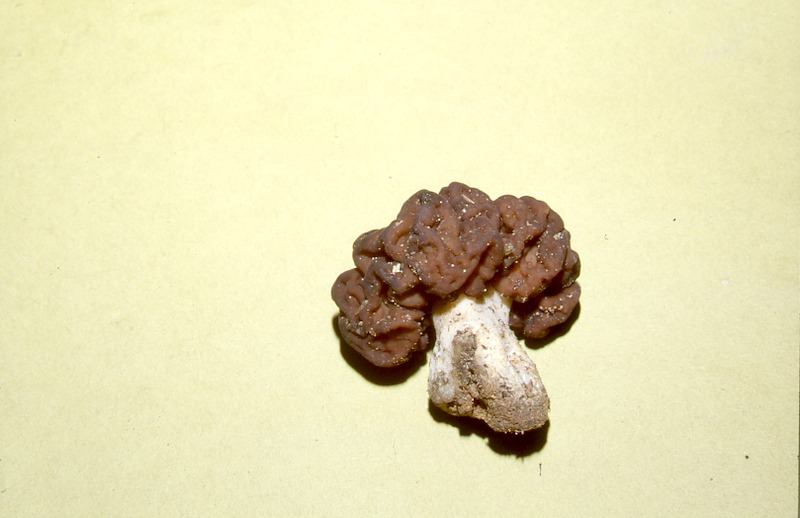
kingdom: Fungi
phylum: Ascomycota
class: Pezizomycetes
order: Pezizales
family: Discinaceae
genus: Gyromitra
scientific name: Gyromitra esculenta
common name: False morel
